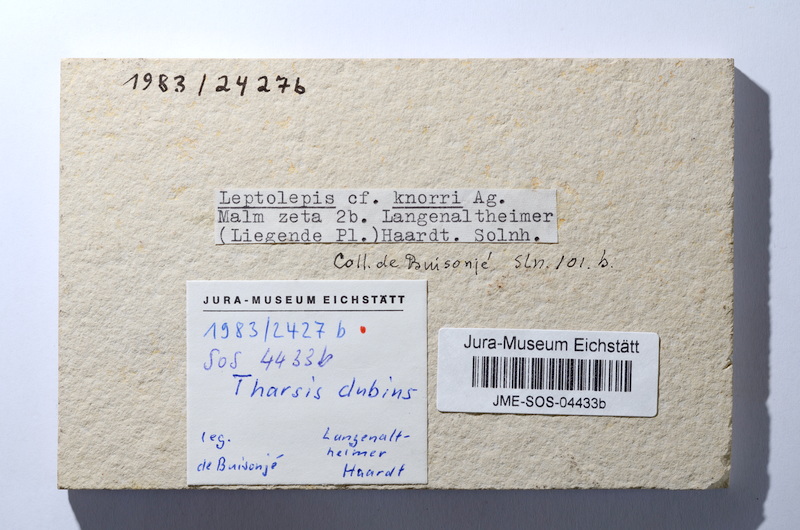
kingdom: Animalia
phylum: Chordata
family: Ascalaboidae
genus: Tharsis
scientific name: Tharsis dubius
